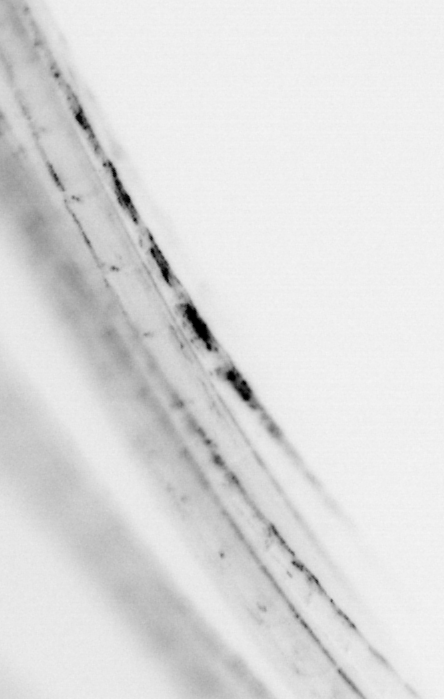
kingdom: Animalia
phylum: Chordata
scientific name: Chordata
